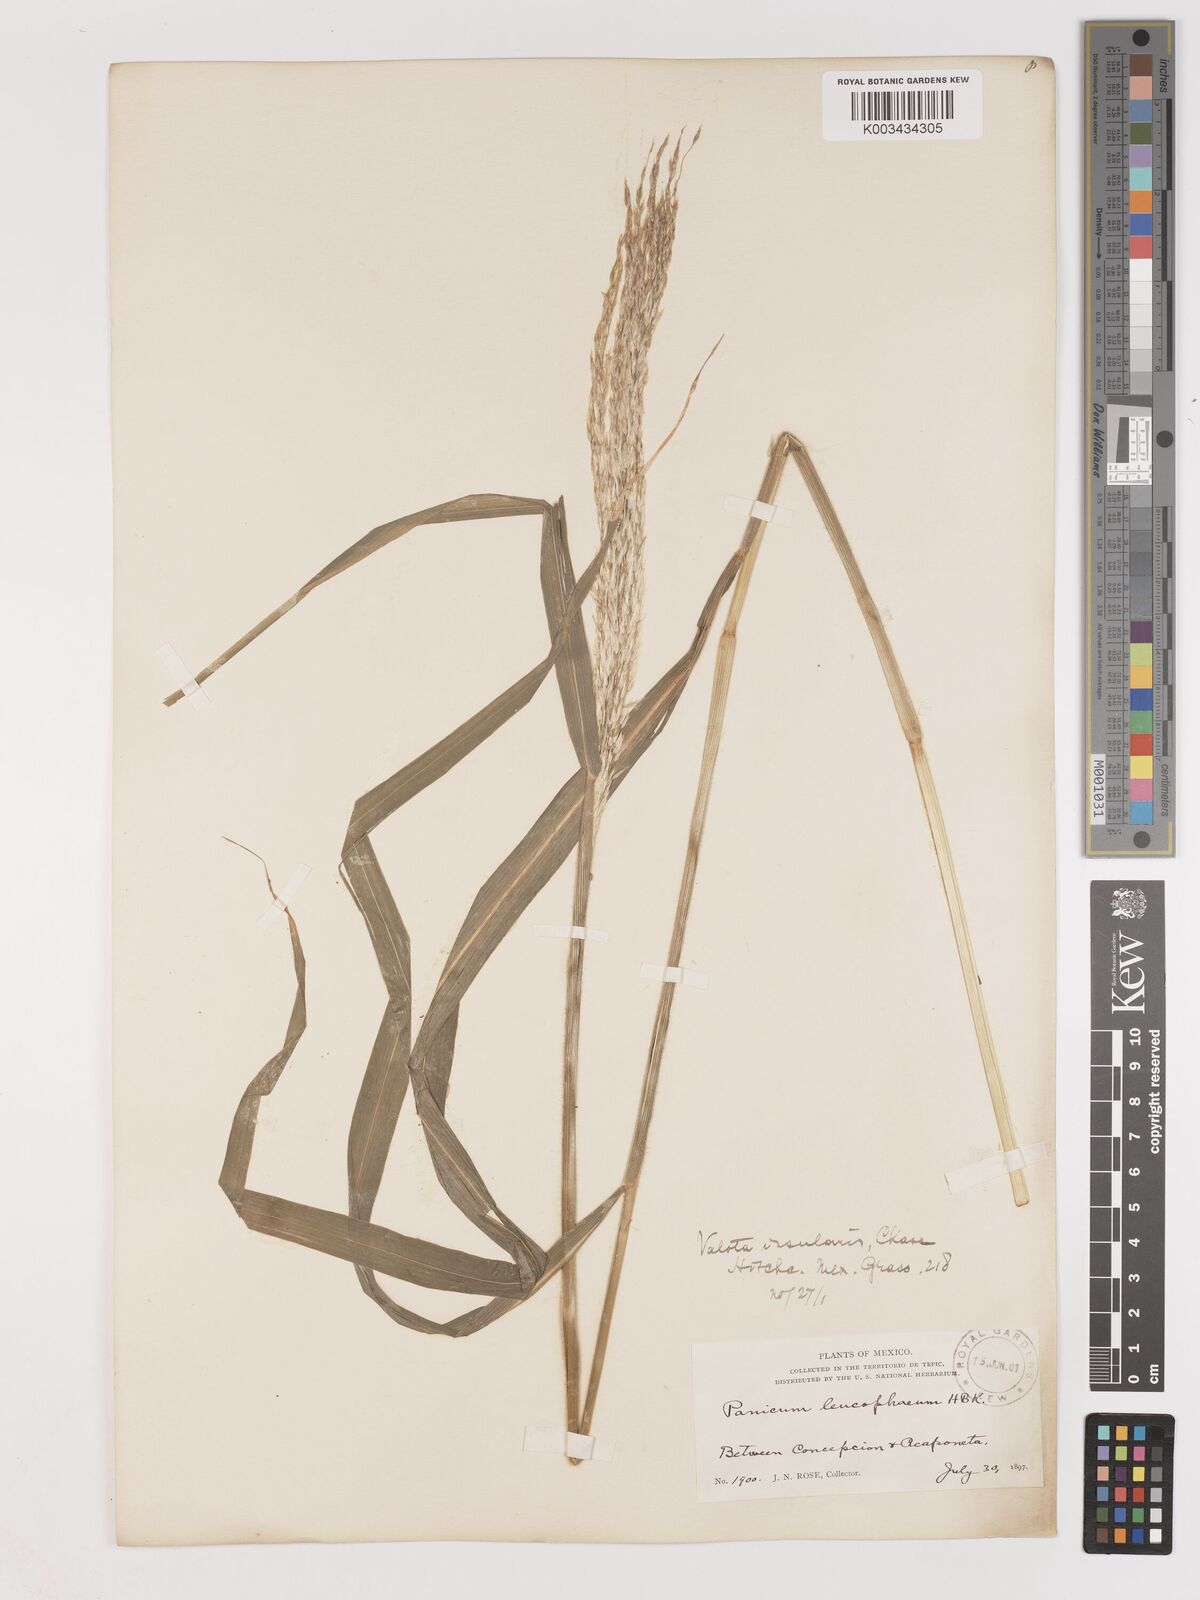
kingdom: Plantae
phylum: Tracheophyta
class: Liliopsida
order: Poales
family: Poaceae
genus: Digitaria
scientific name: Digitaria insularis
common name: Sourgrass
